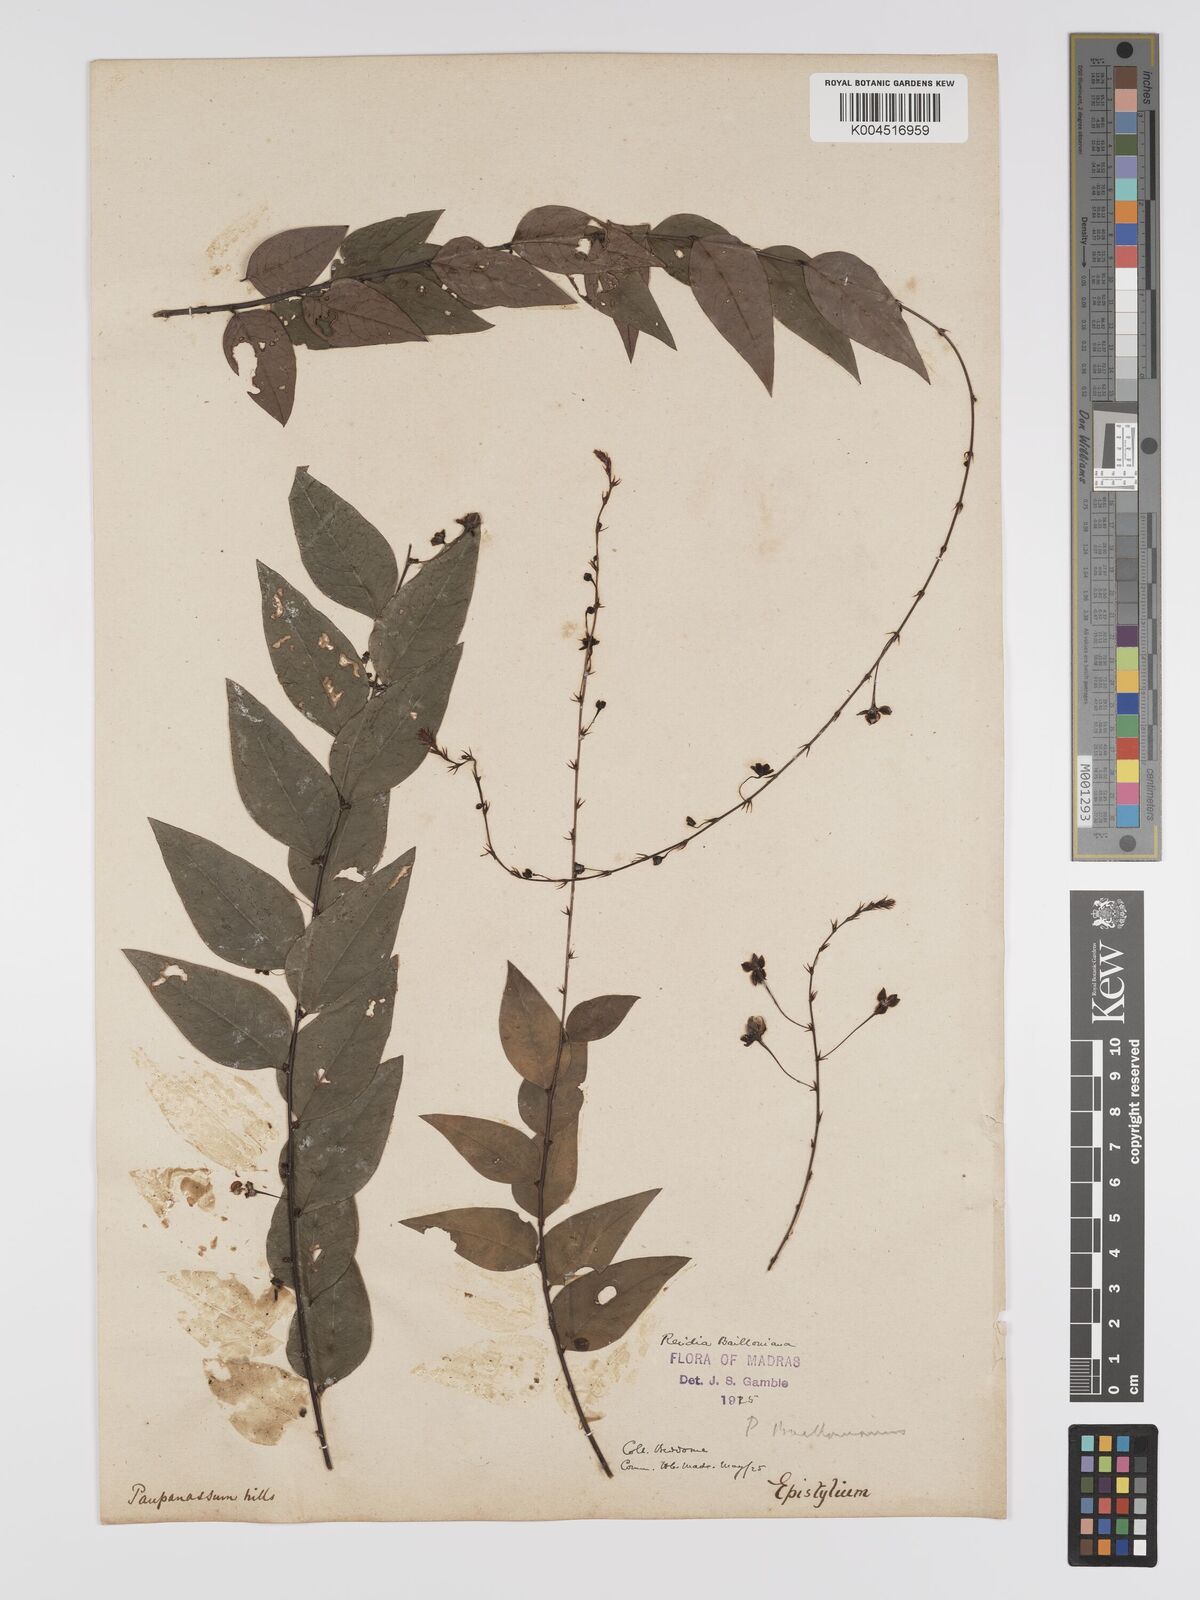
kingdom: Plantae
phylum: Tracheophyta
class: Magnoliopsida
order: Malpighiales
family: Phyllanthaceae
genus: Phyllanthus
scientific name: Phyllanthus baillonianus
